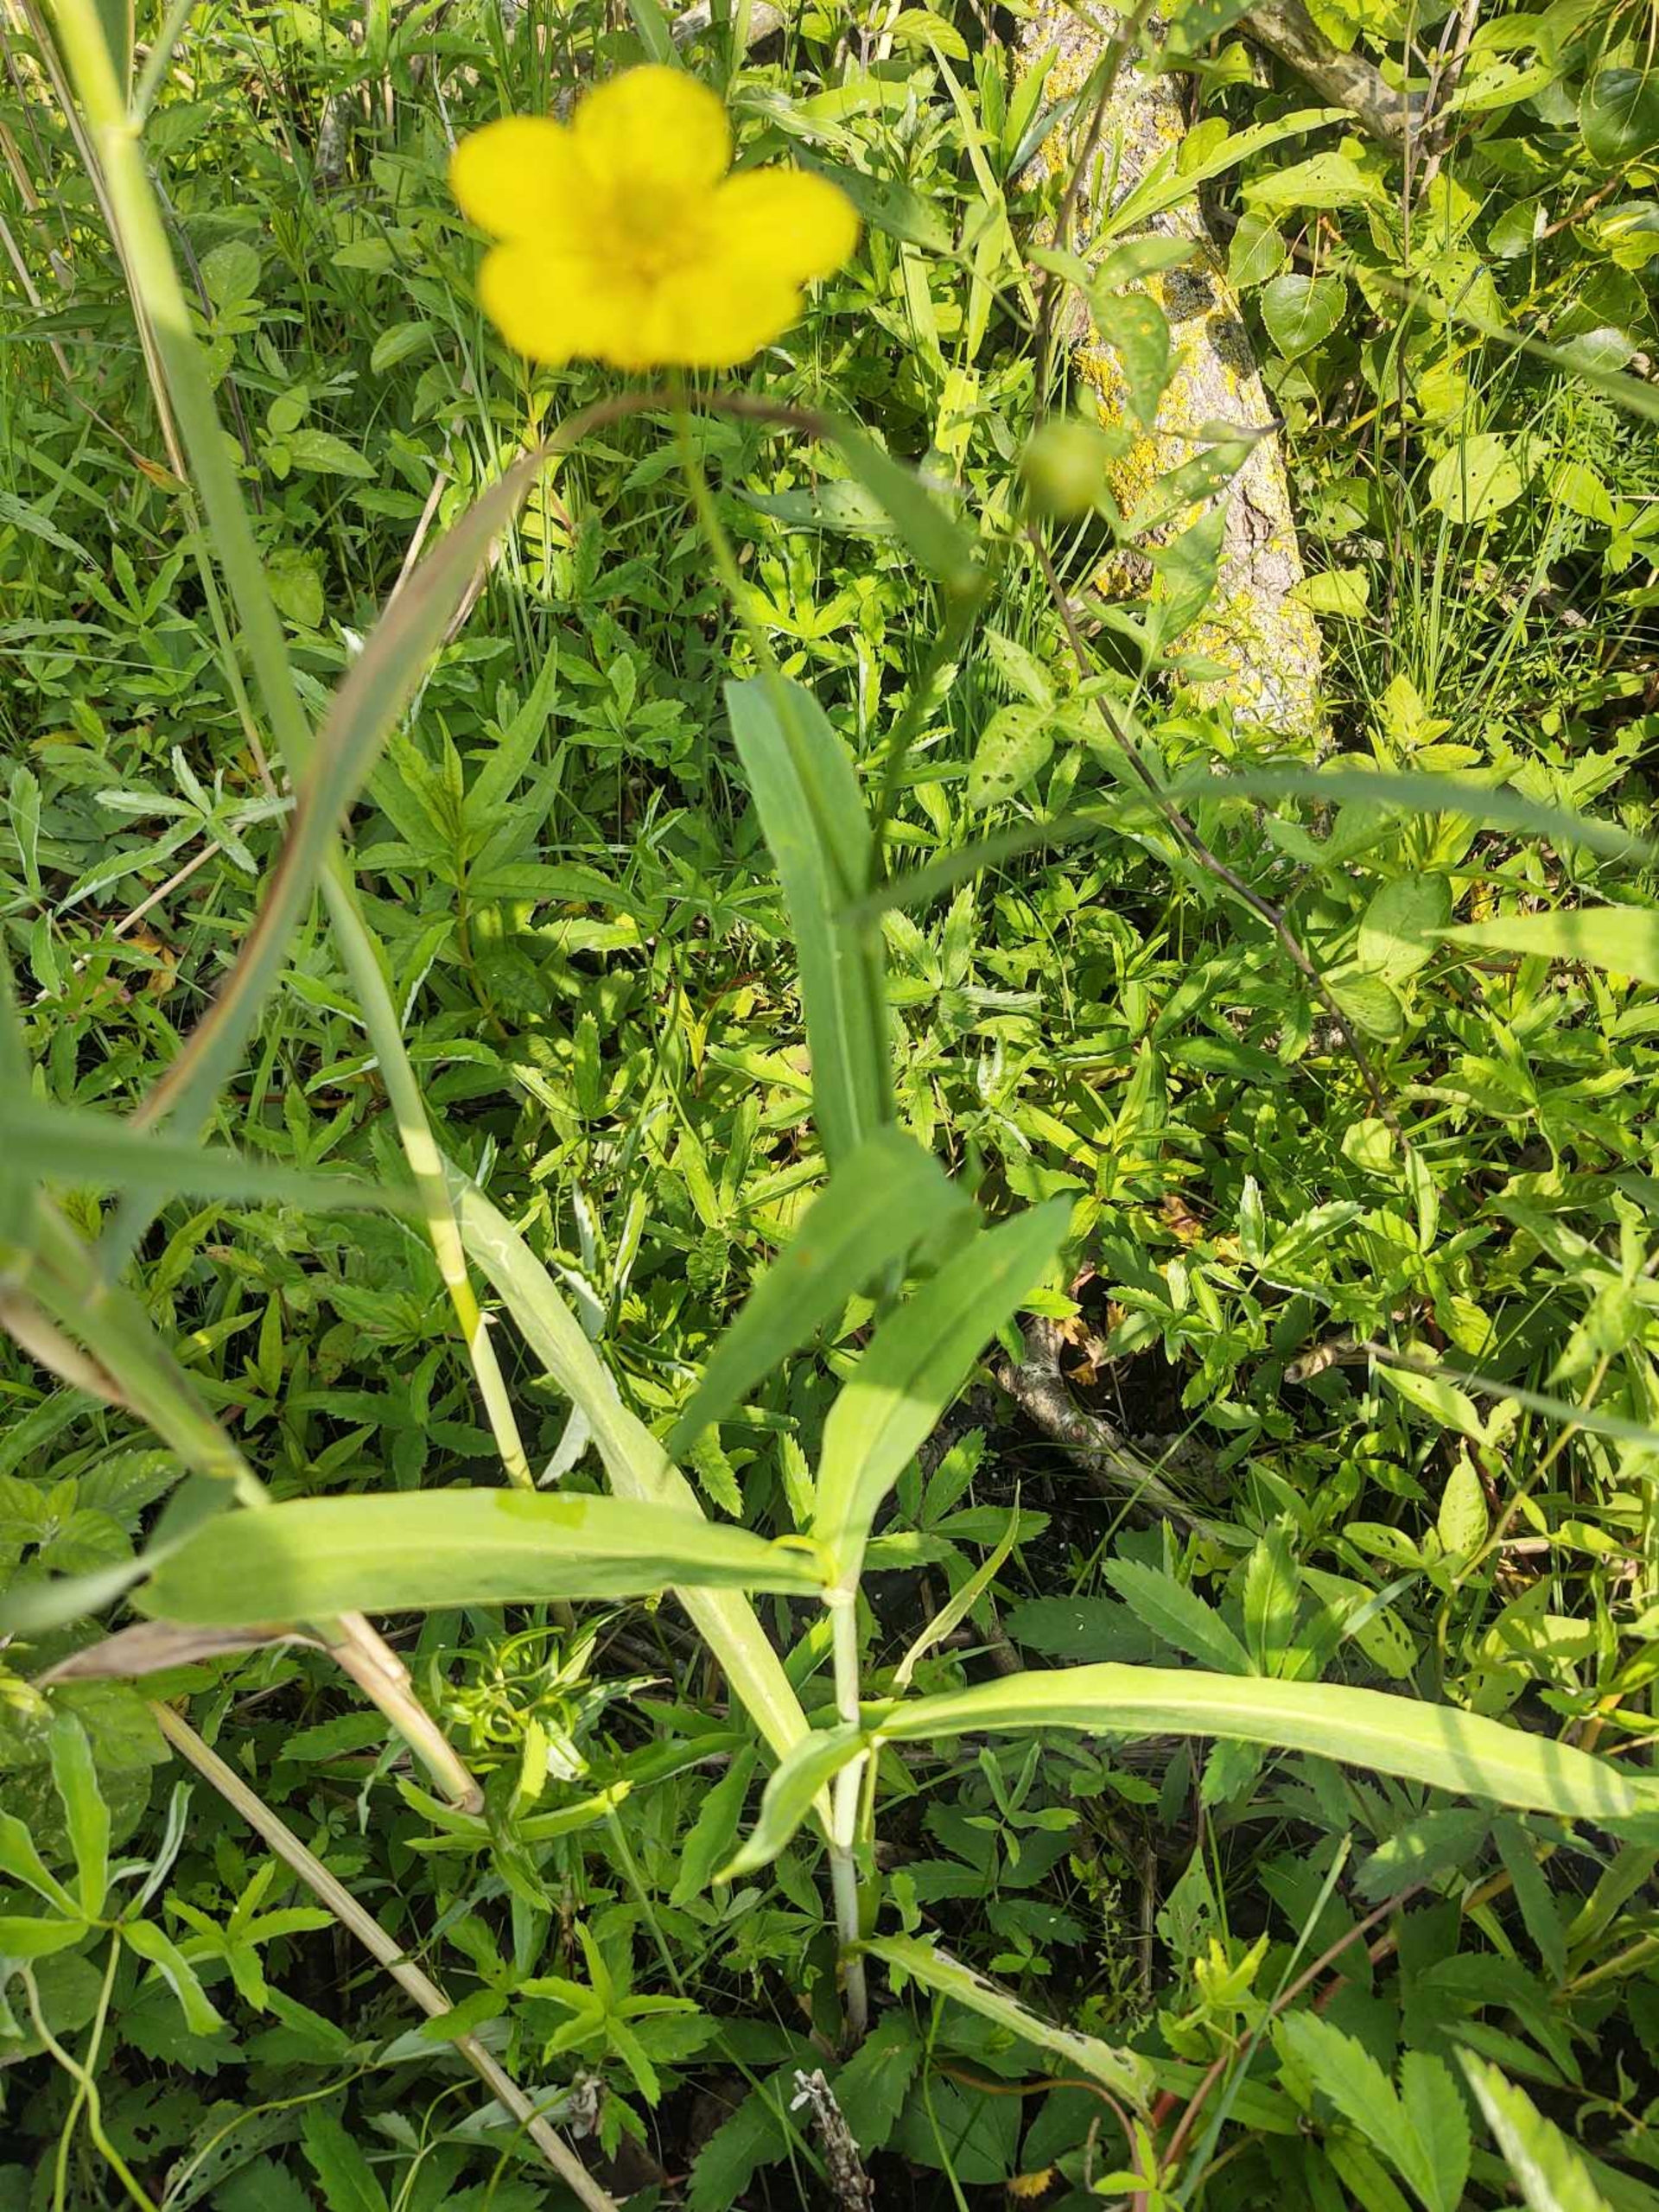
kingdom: Plantae
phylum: Tracheophyta
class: Magnoliopsida
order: Ranunculales
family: Ranunculaceae
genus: Ranunculus
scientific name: Ranunculus lingua
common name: Langbladet ranunkel
